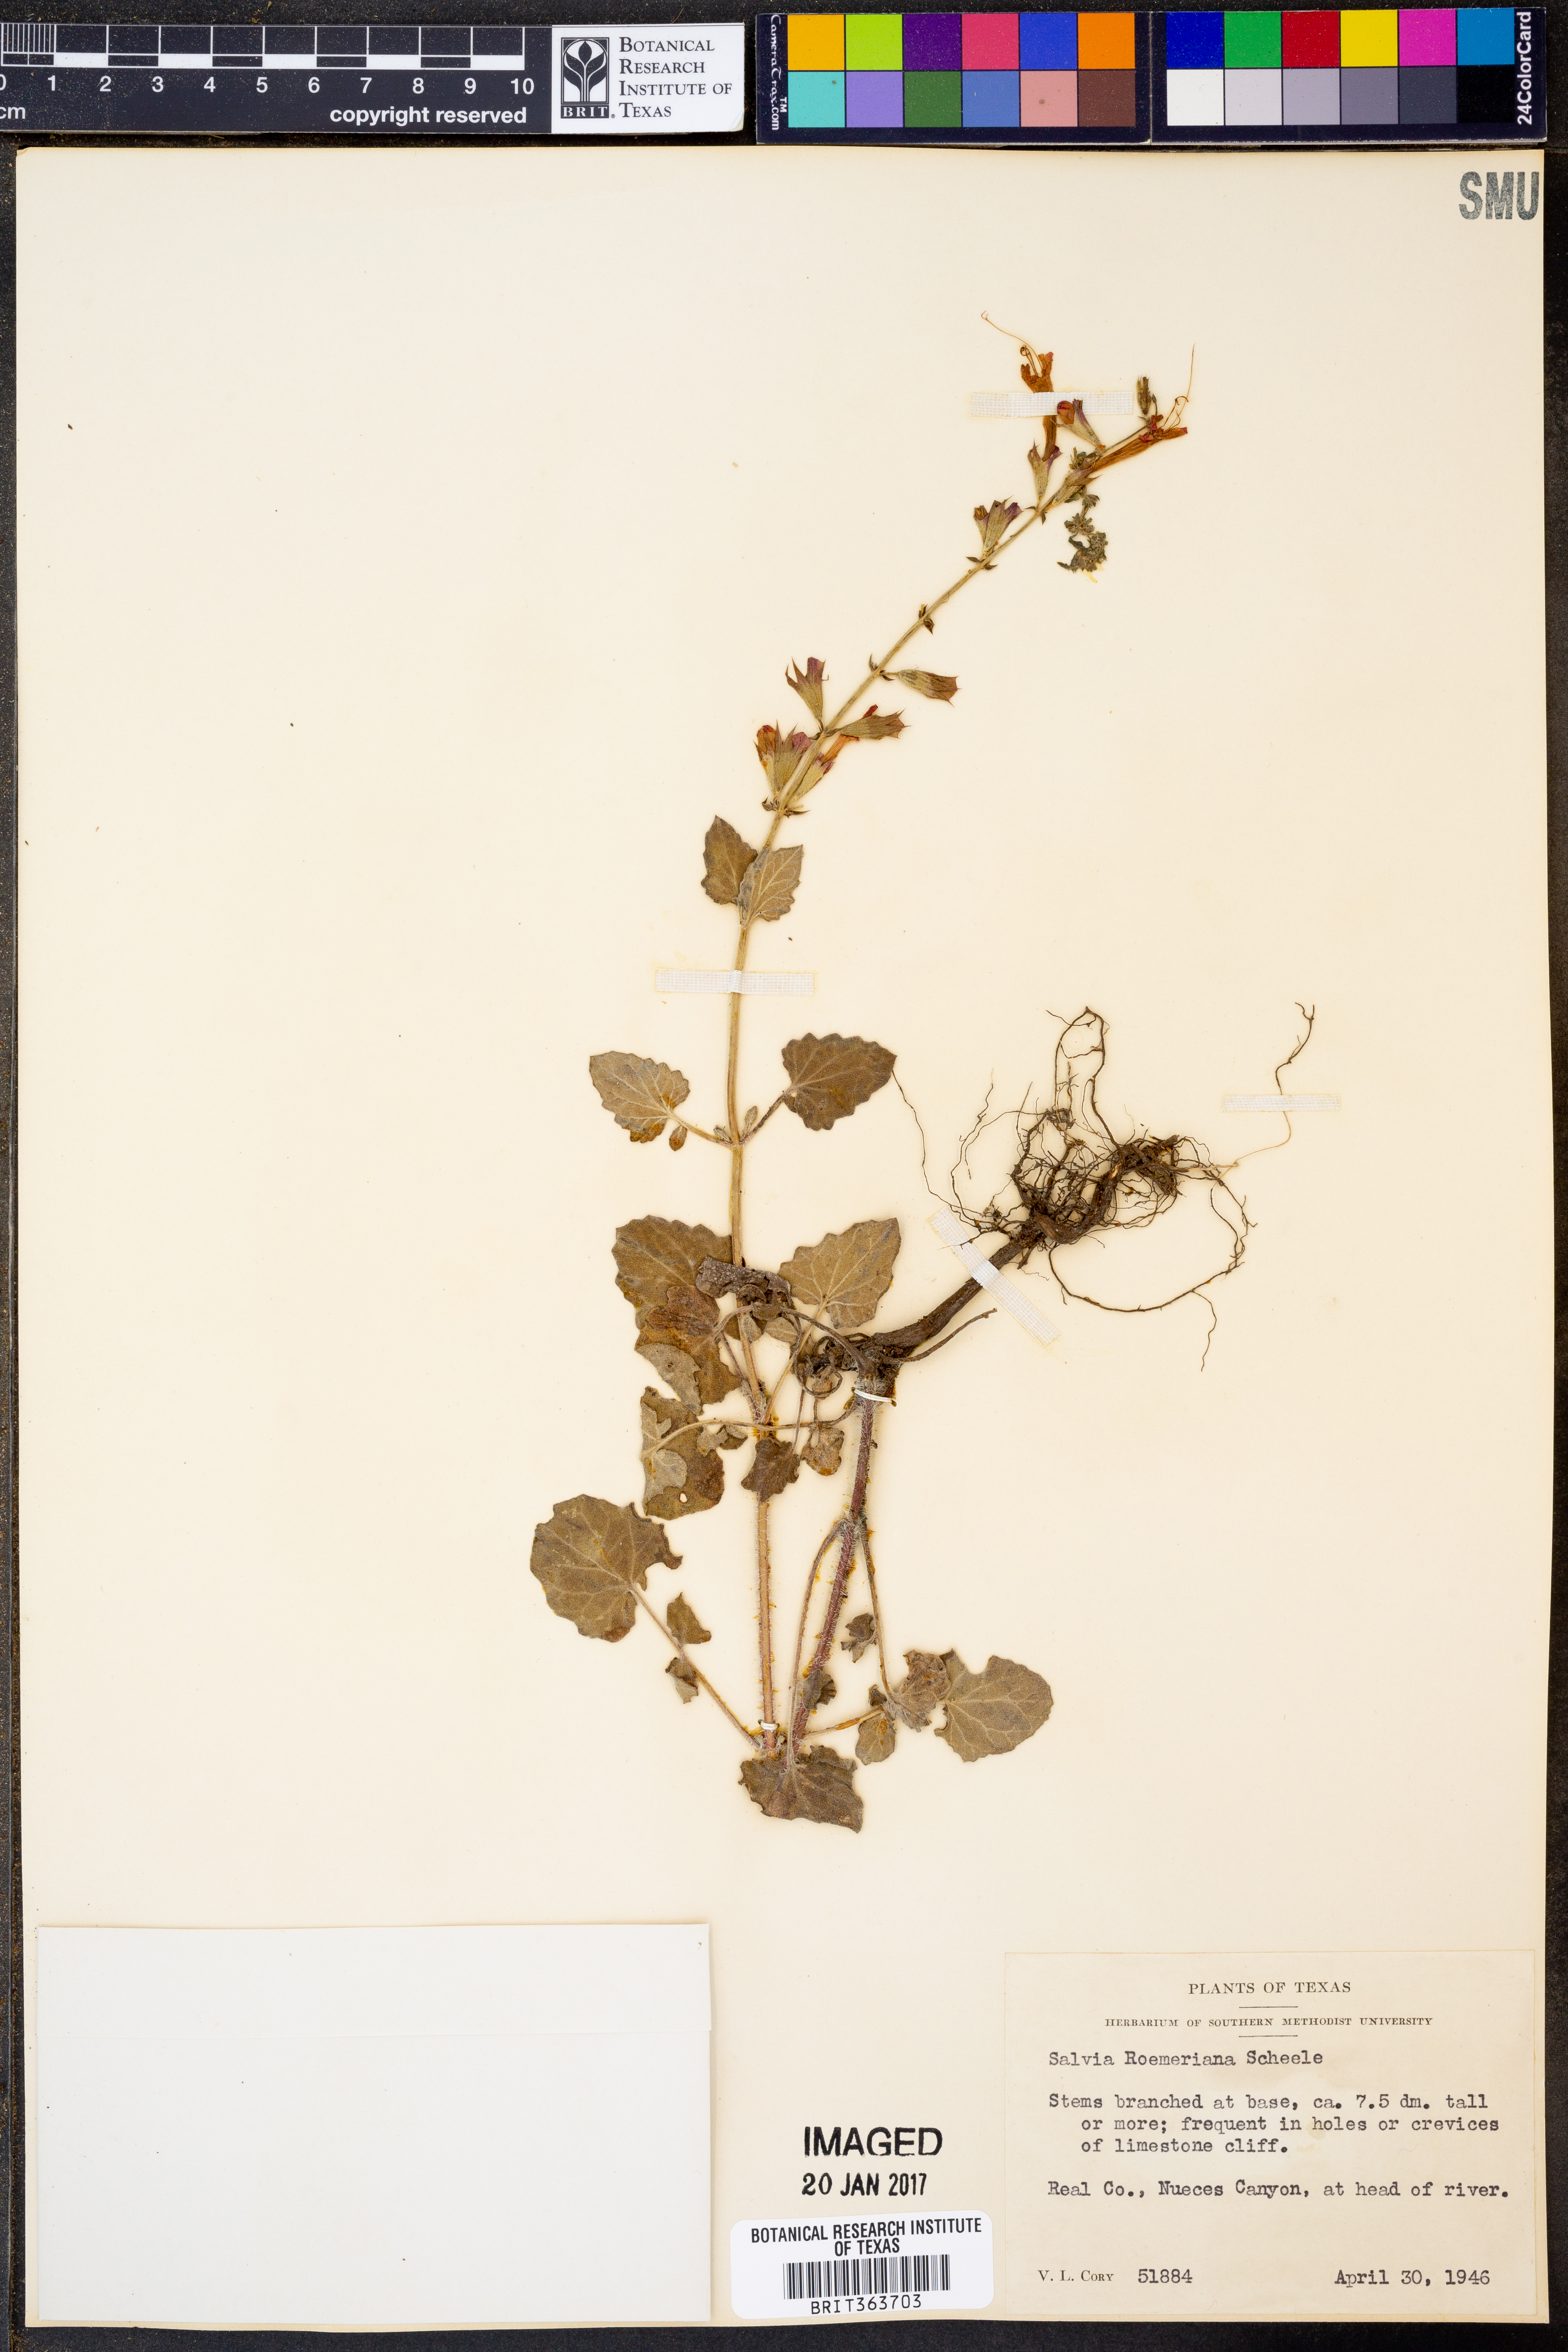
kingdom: Plantae
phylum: Tracheophyta
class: Magnoliopsida
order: Lamiales
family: Lamiaceae
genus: Salvia
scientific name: Salvia roemeriana
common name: Cedar sage
